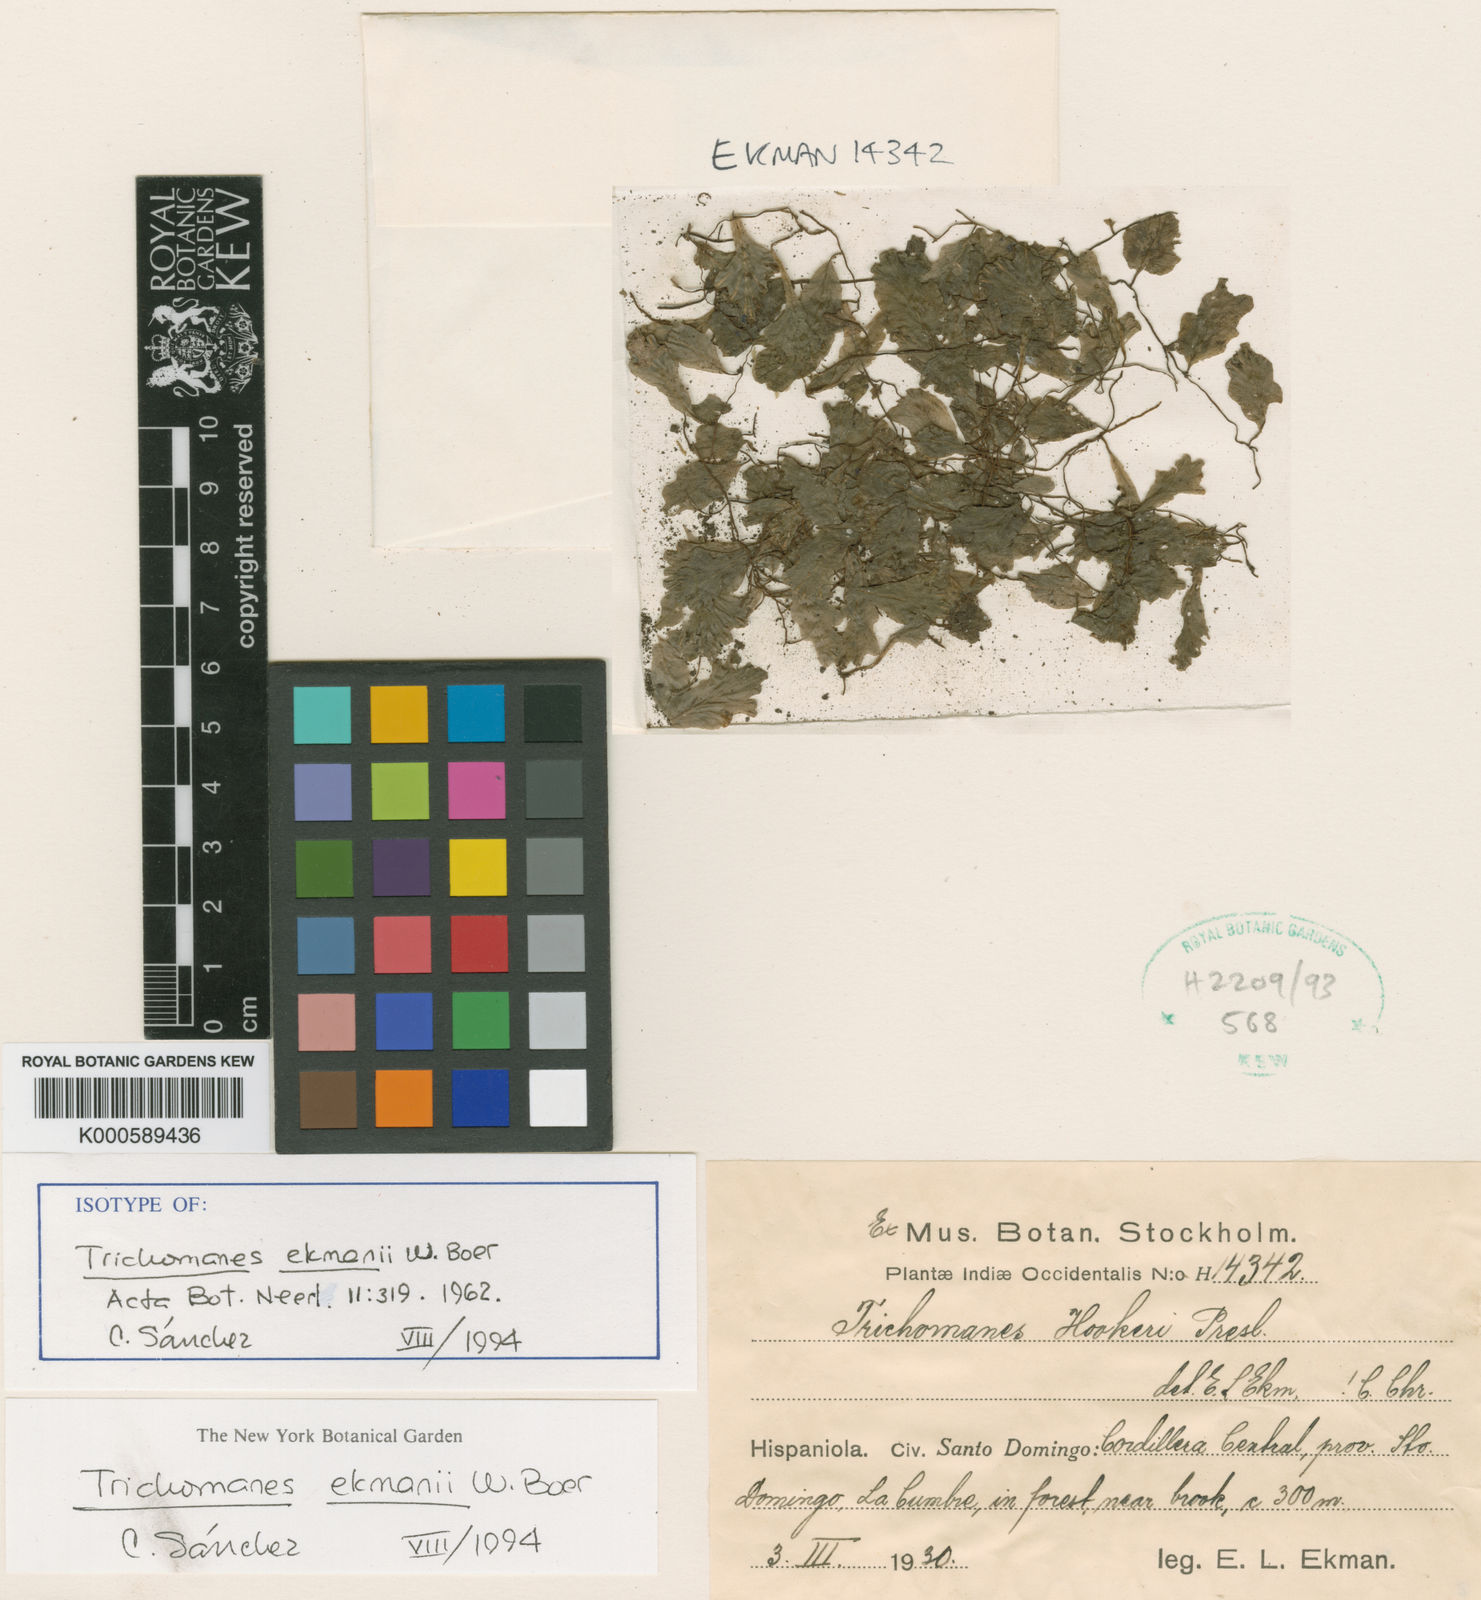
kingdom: Plantae
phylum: Tracheophyta
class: Polypodiopsida
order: Hymenophyllales
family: Hymenophyllaceae
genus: Didymoglossum
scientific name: Didymoglossum ekmanii
